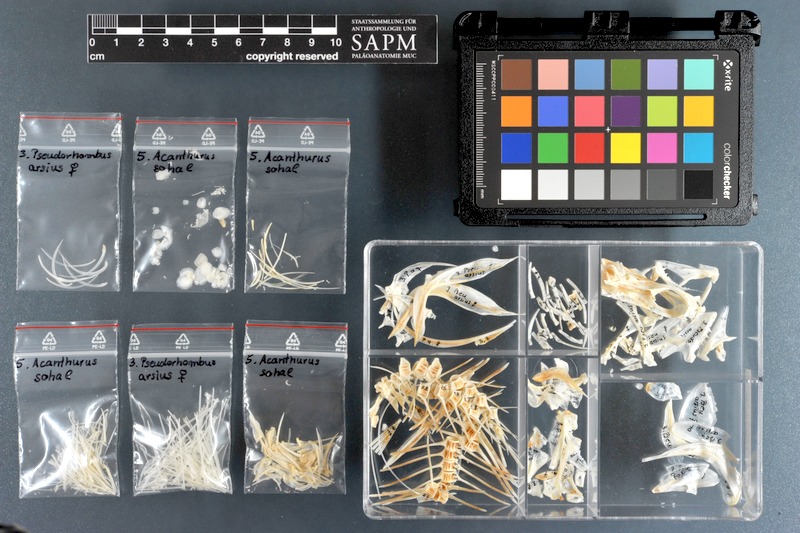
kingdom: Animalia
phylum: Chordata
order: Pleuronectiformes
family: Paralichthyidae
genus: Pseudorhombus
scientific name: Pseudorhombus arsius
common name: Largetooth flounder
